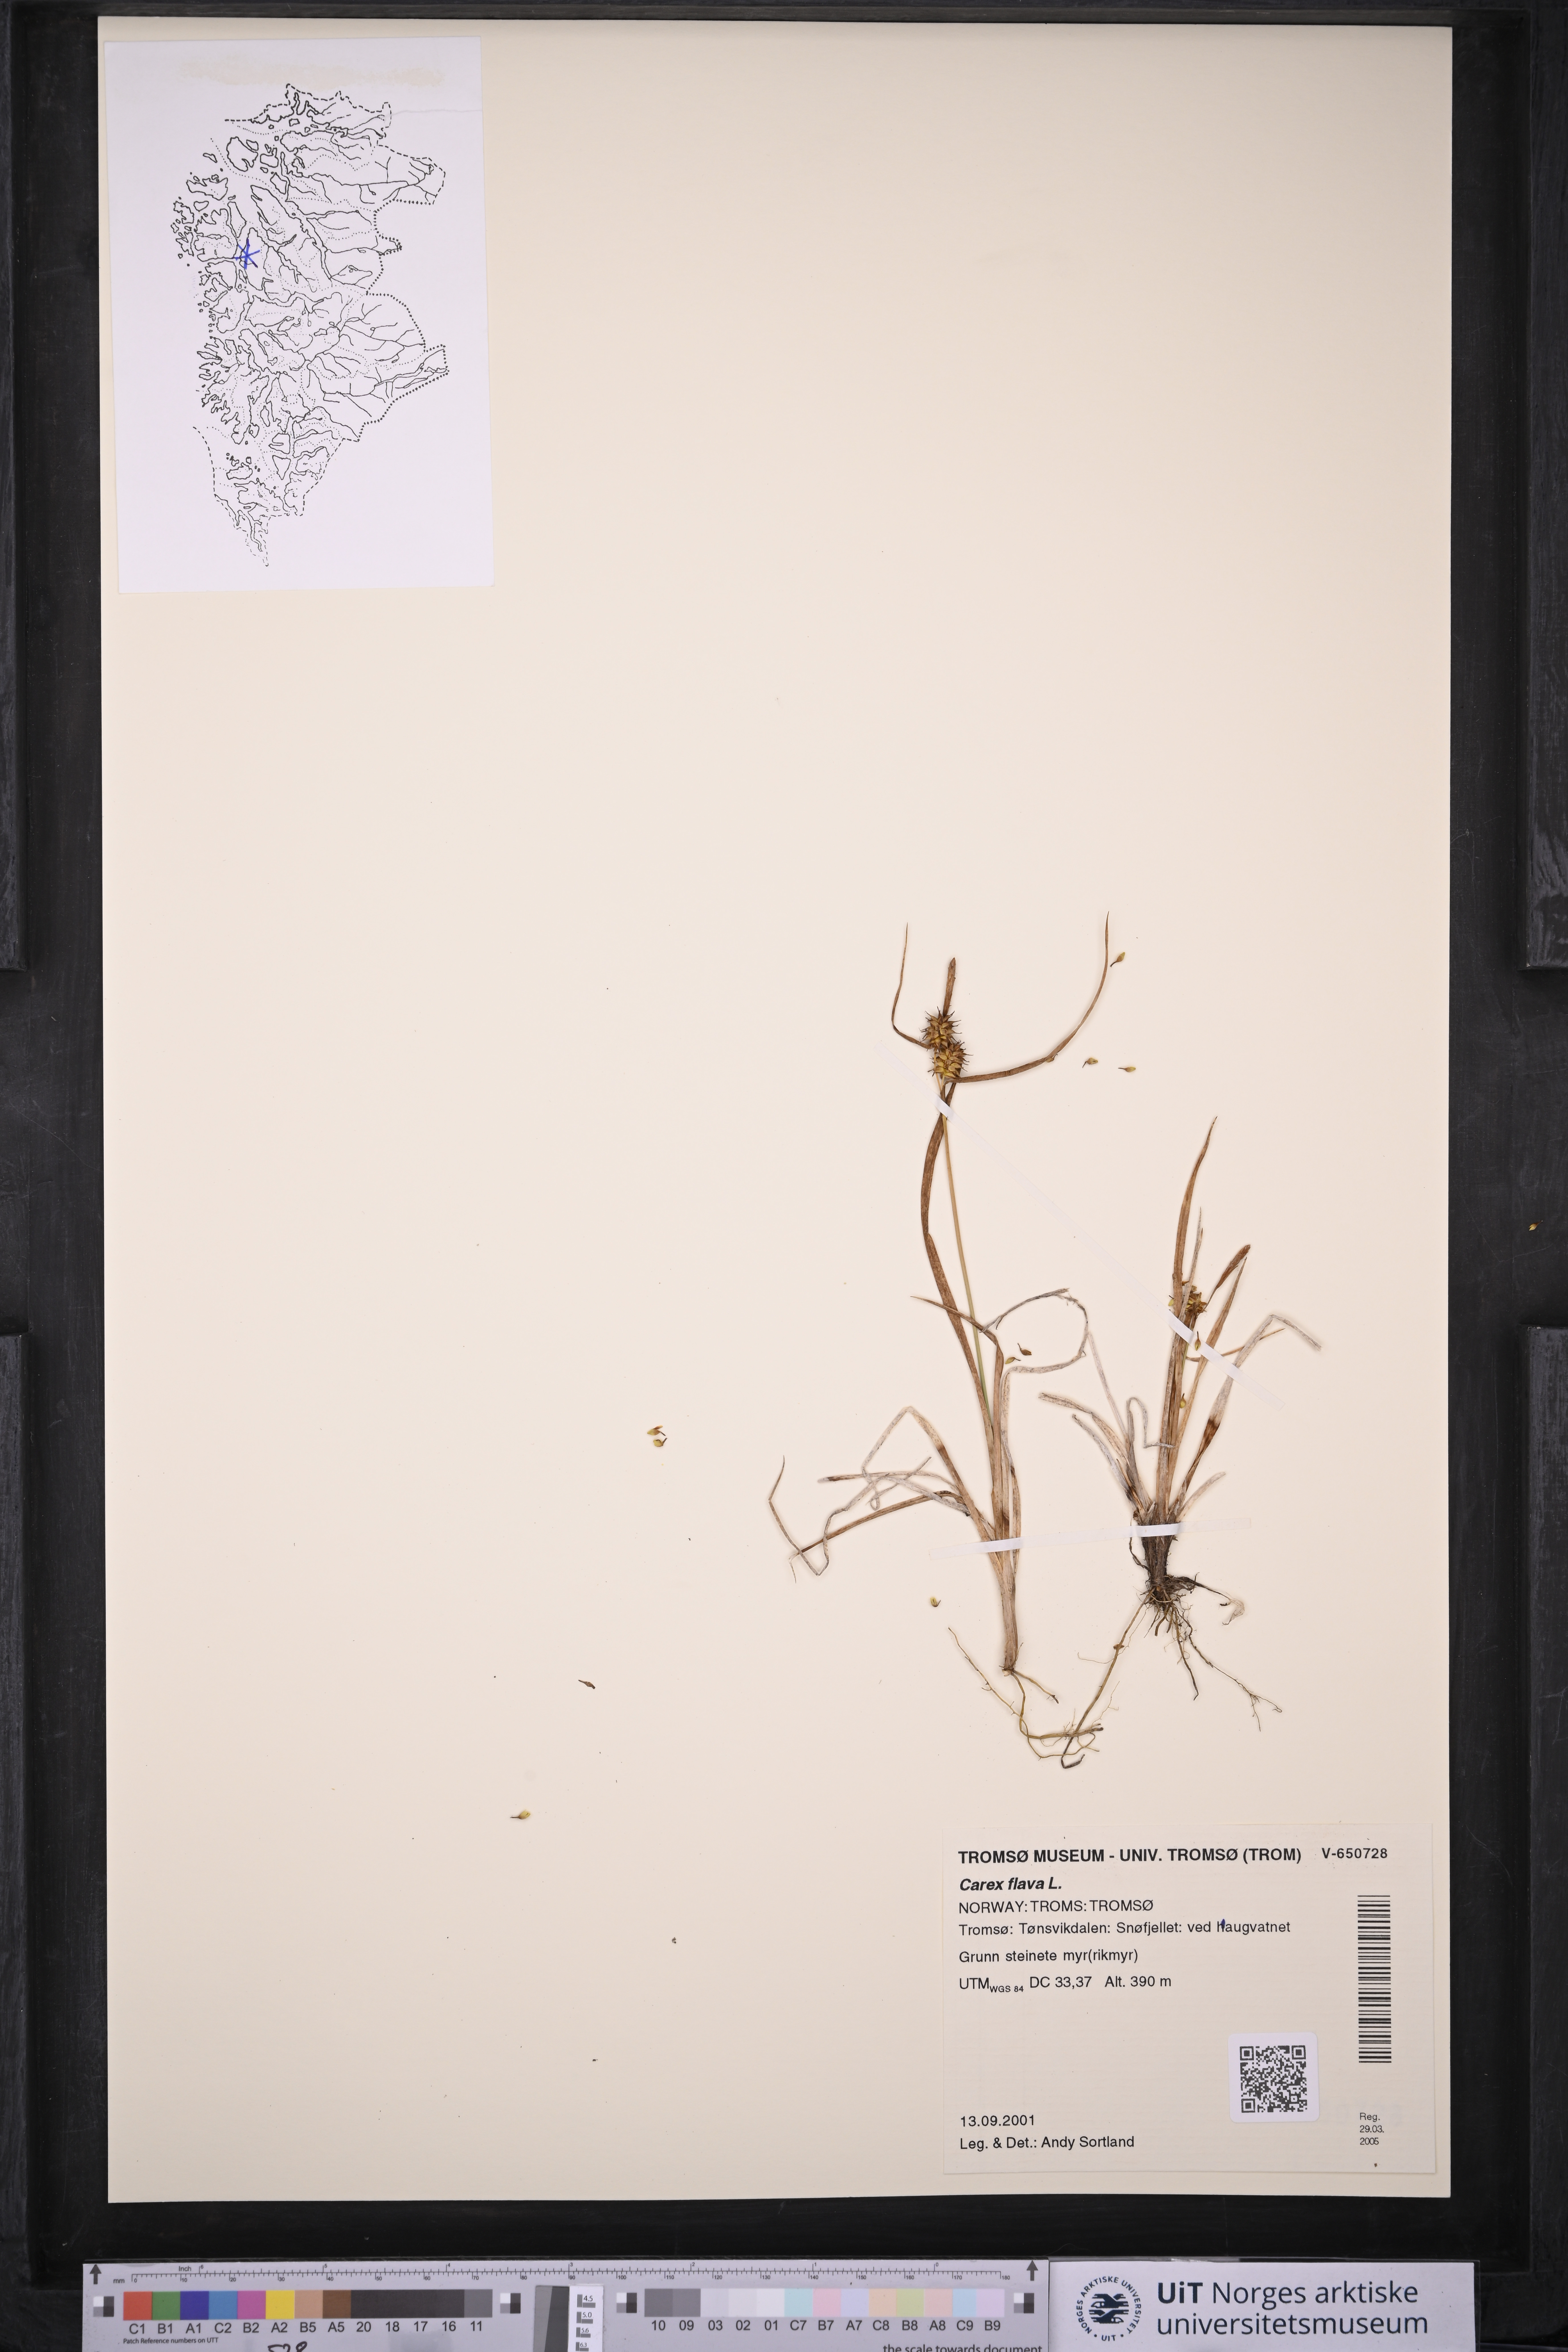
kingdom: Plantae
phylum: Tracheophyta
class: Liliopsida
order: Poales
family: Cyperaceae
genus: Carex
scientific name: Carex flava
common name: Large yellow-sedge
